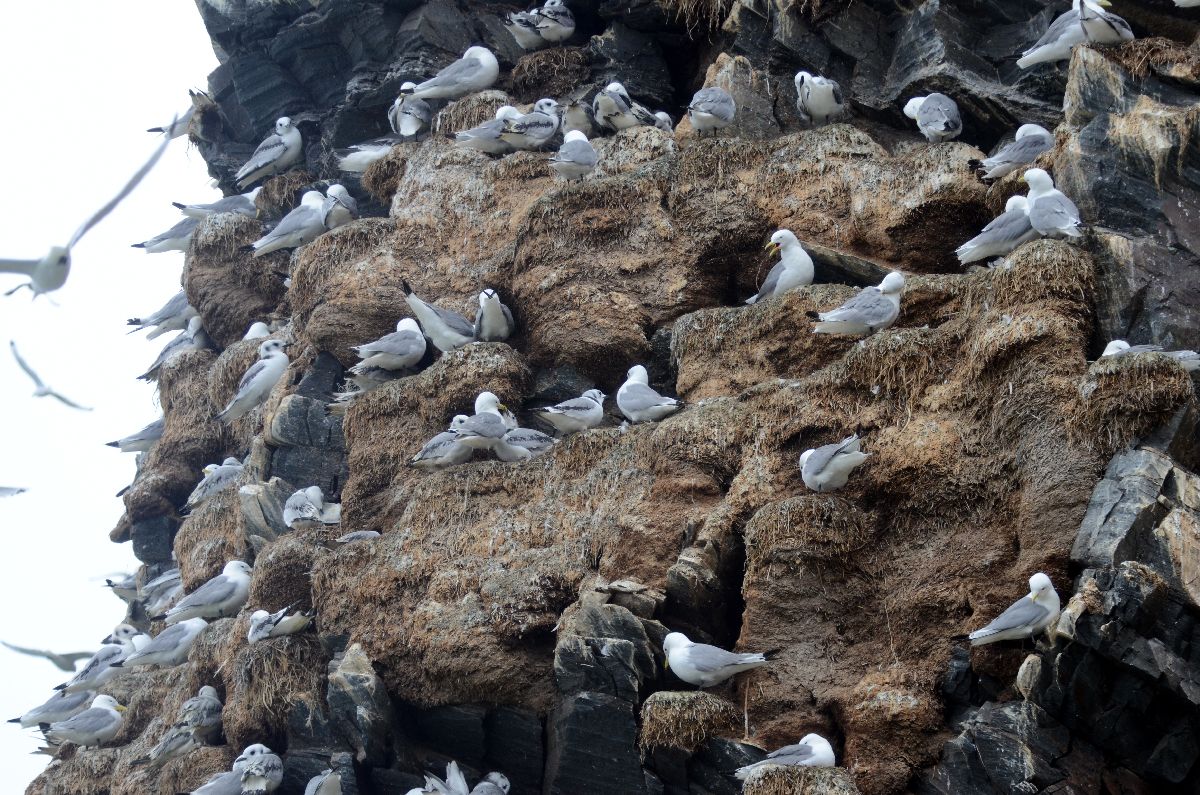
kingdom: Animalia
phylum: Chordata
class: Aves
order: Charadriiformes
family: Laridae
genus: Rissa
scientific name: Rissa tridactyla
